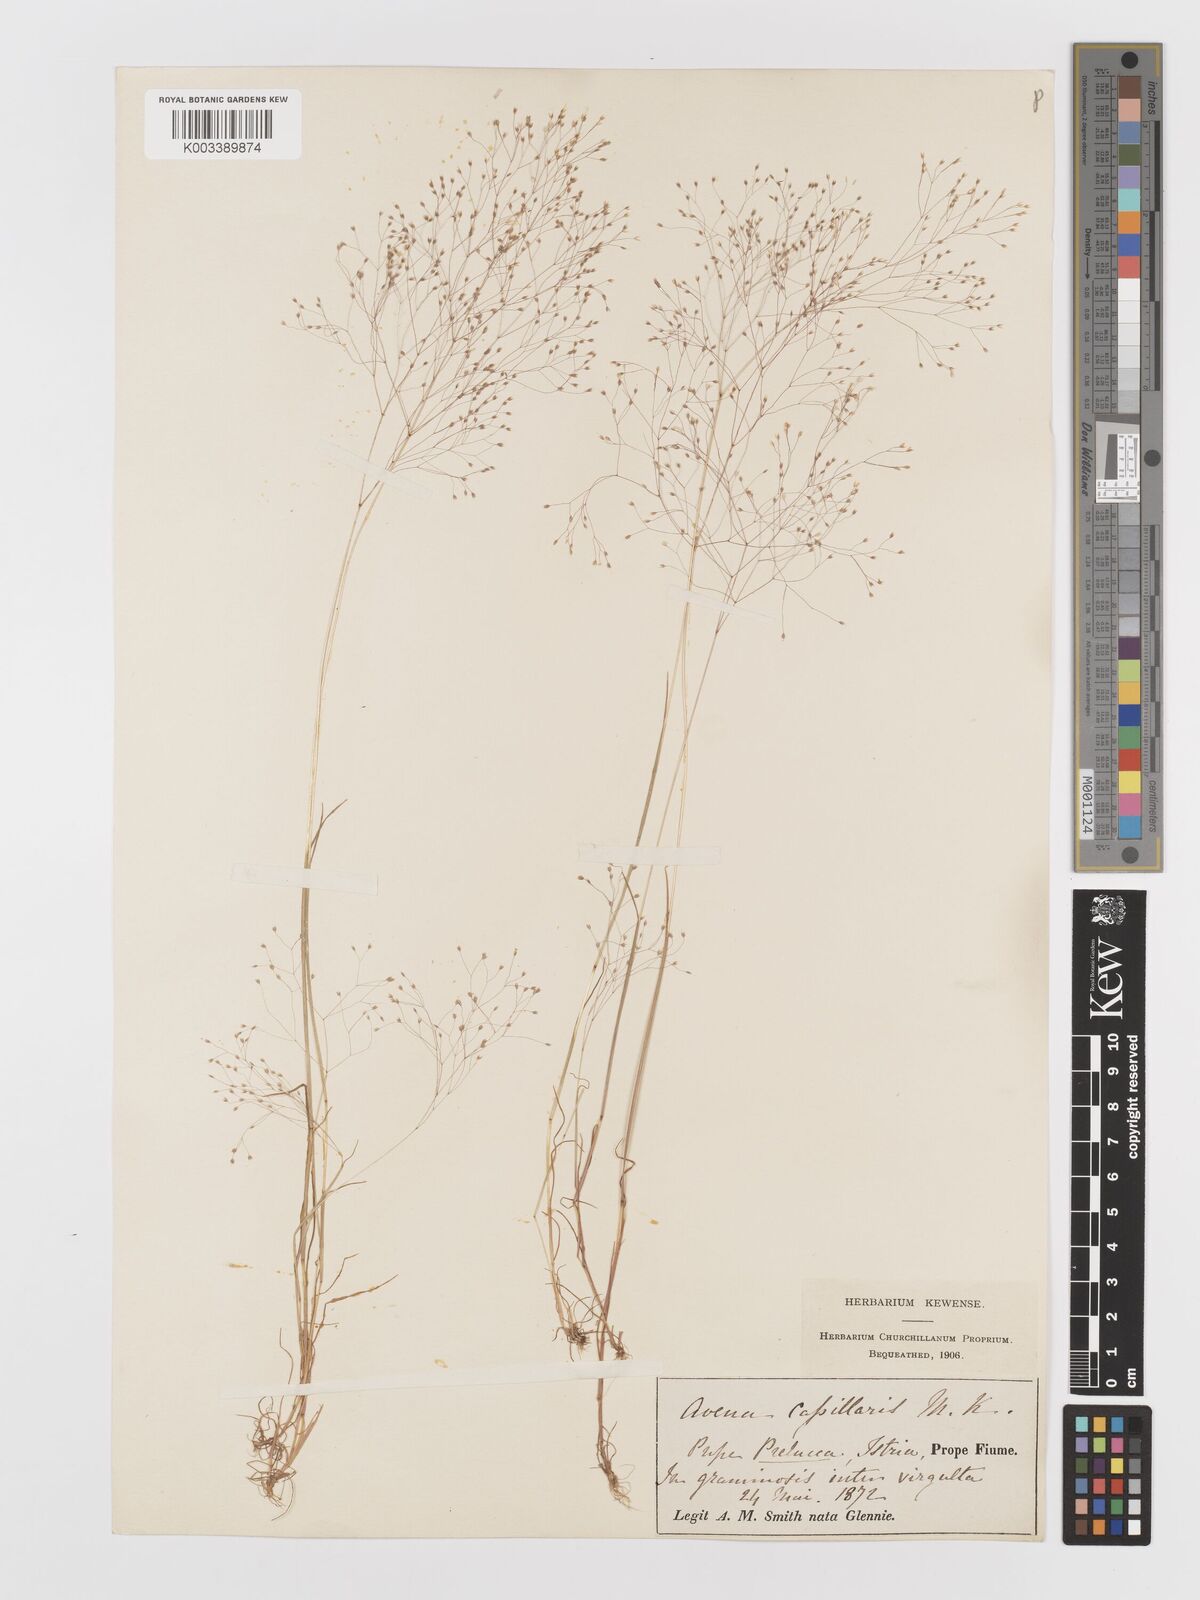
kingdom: Plantae
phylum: Tracheophyta
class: Liliopsida
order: Poales
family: Poaceae
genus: Aira
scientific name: Aira elegans
